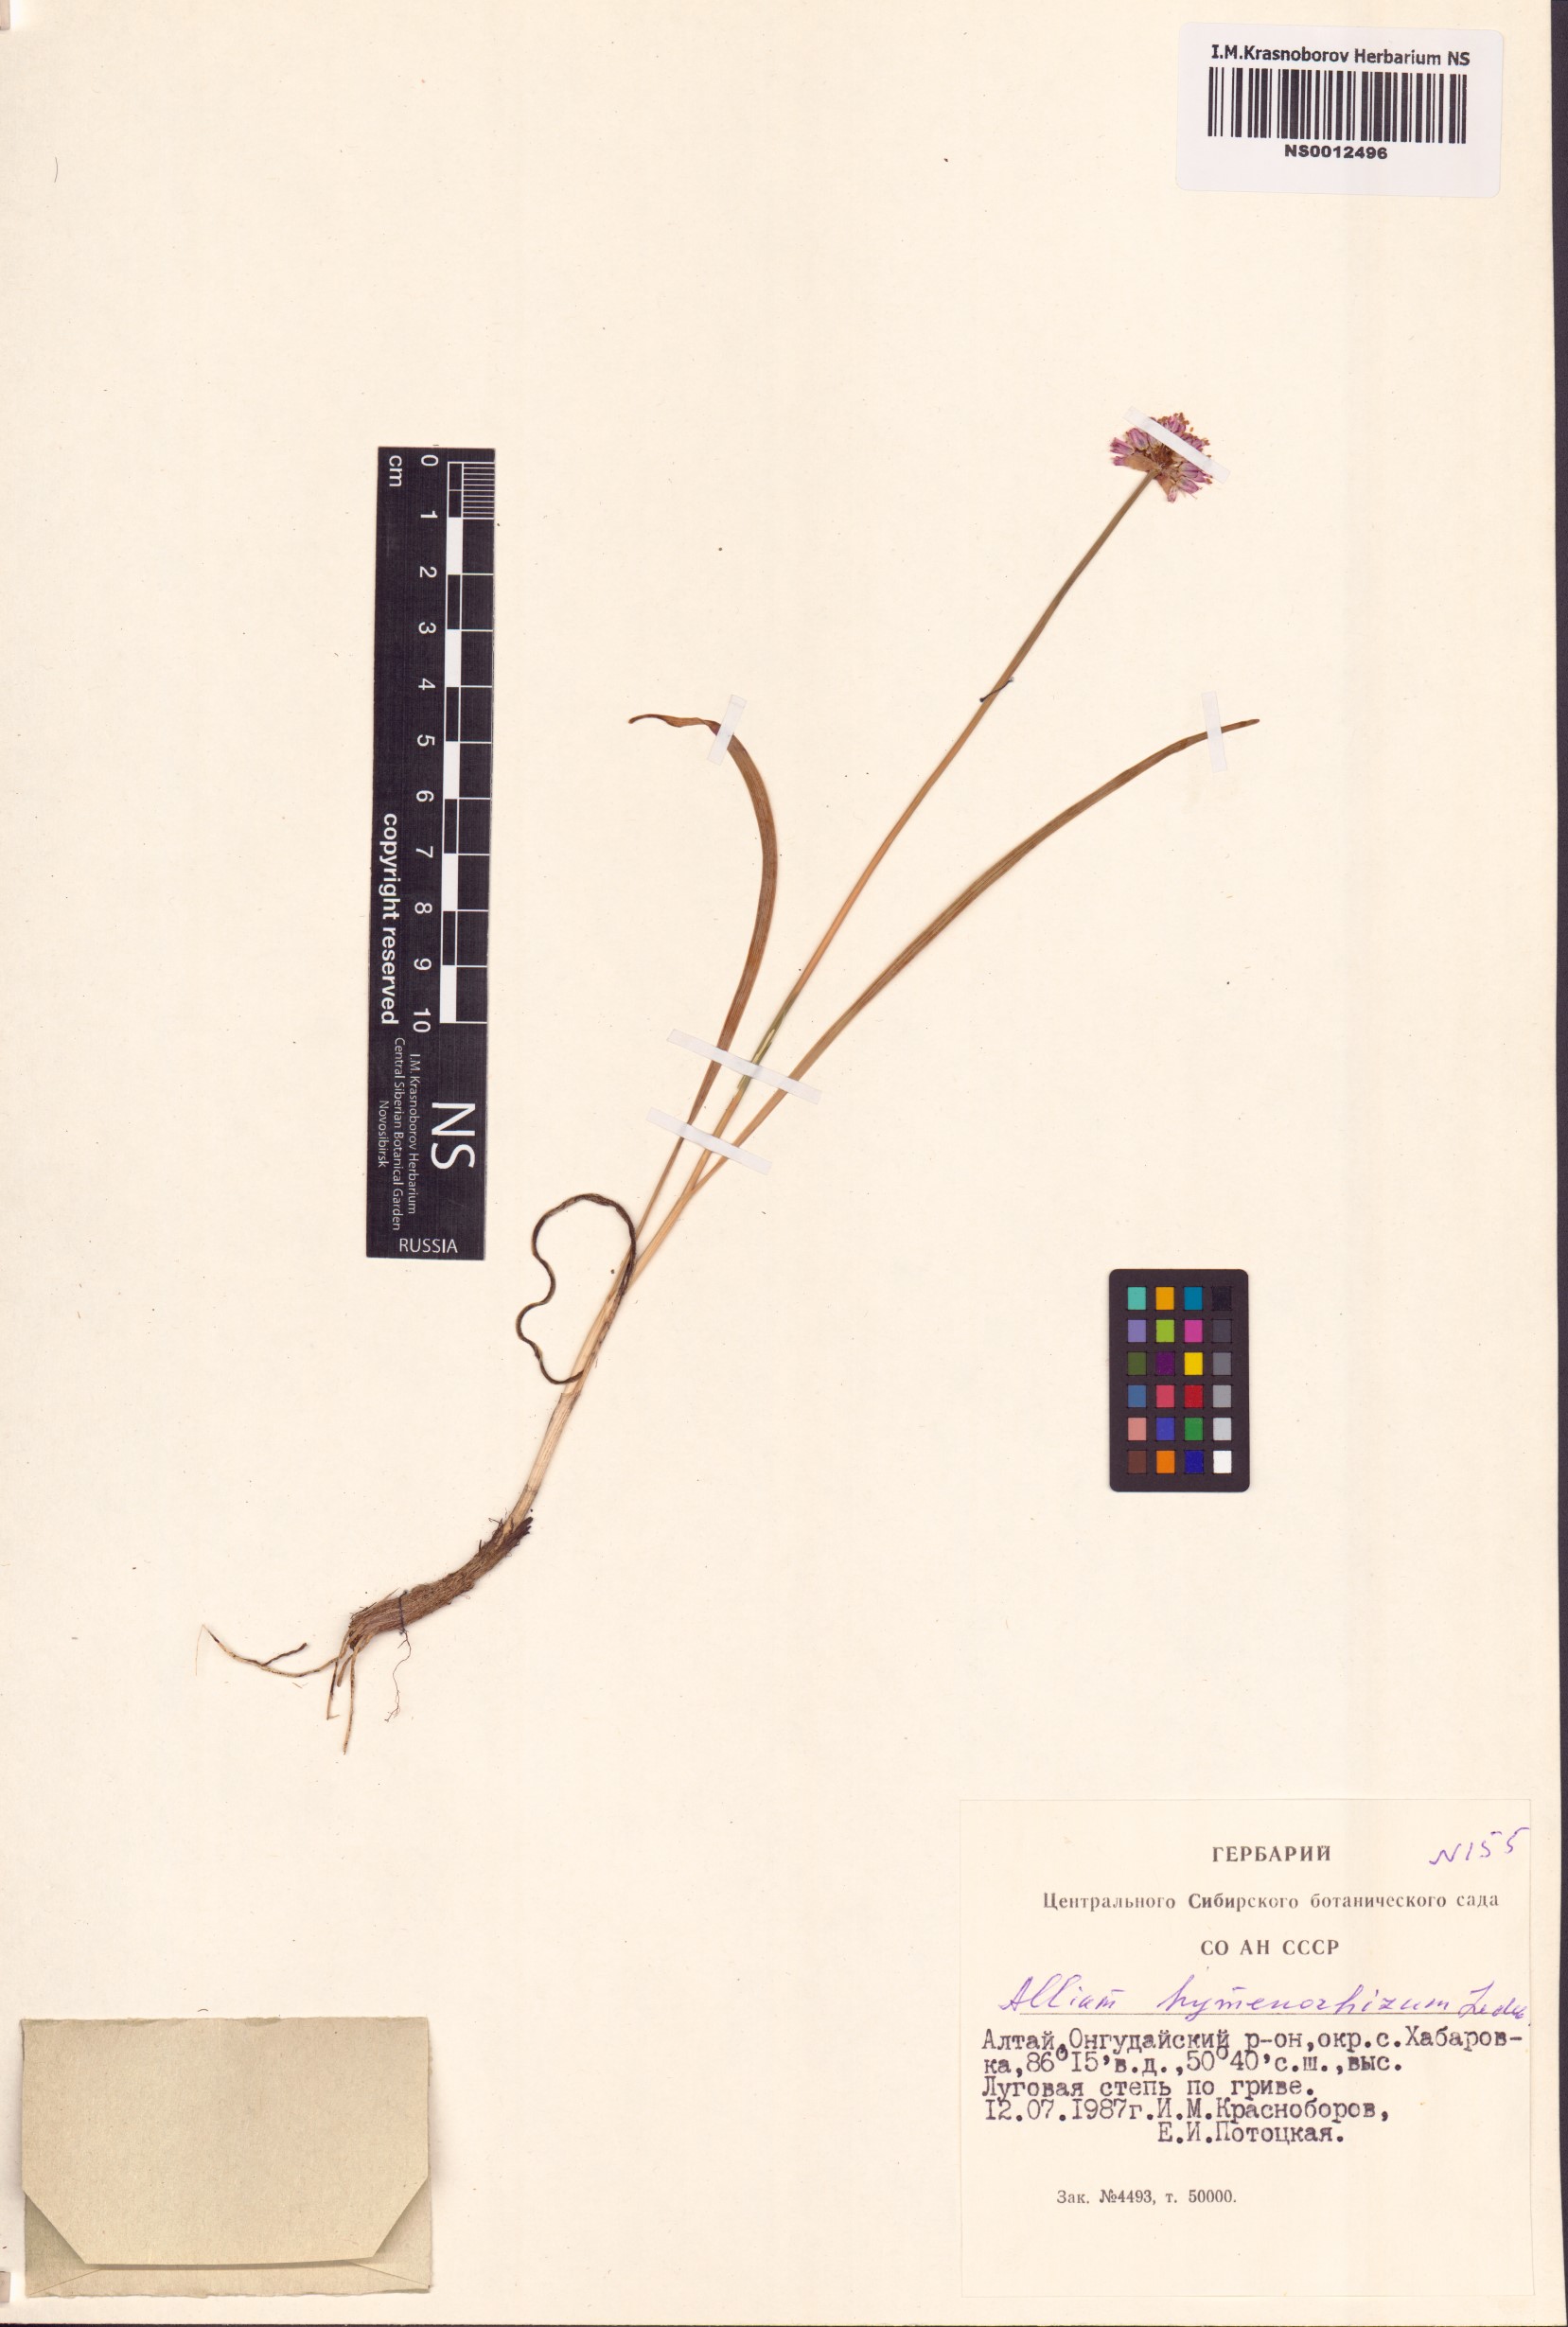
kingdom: Plantae
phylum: Tracheophyta
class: Liliopsida
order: Asparagales
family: Amaryllidaceae
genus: Allium
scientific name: Allium hymenorhizum
